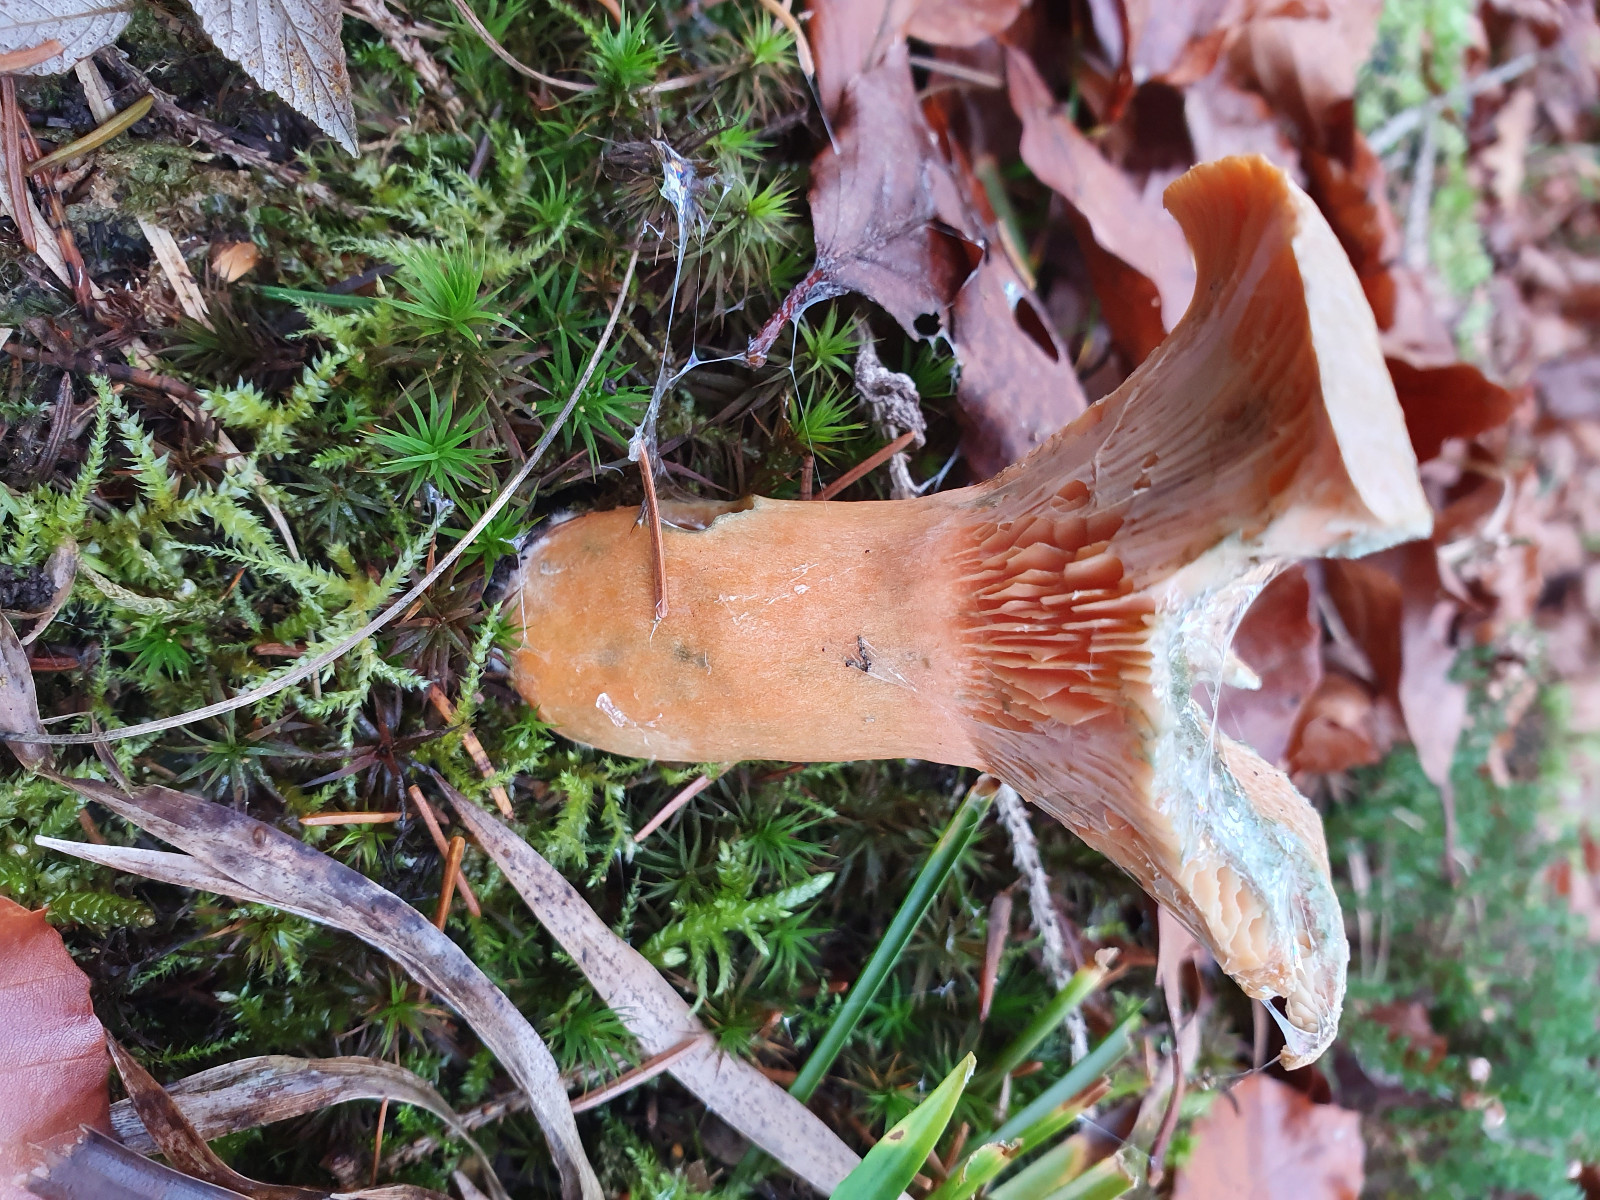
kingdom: Fungi
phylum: Basidiomycota
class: Agaricomycetes
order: Russulales
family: Russulaceae
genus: Lactarius
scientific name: Lactarius deterrimus
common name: gran-mælkehat
